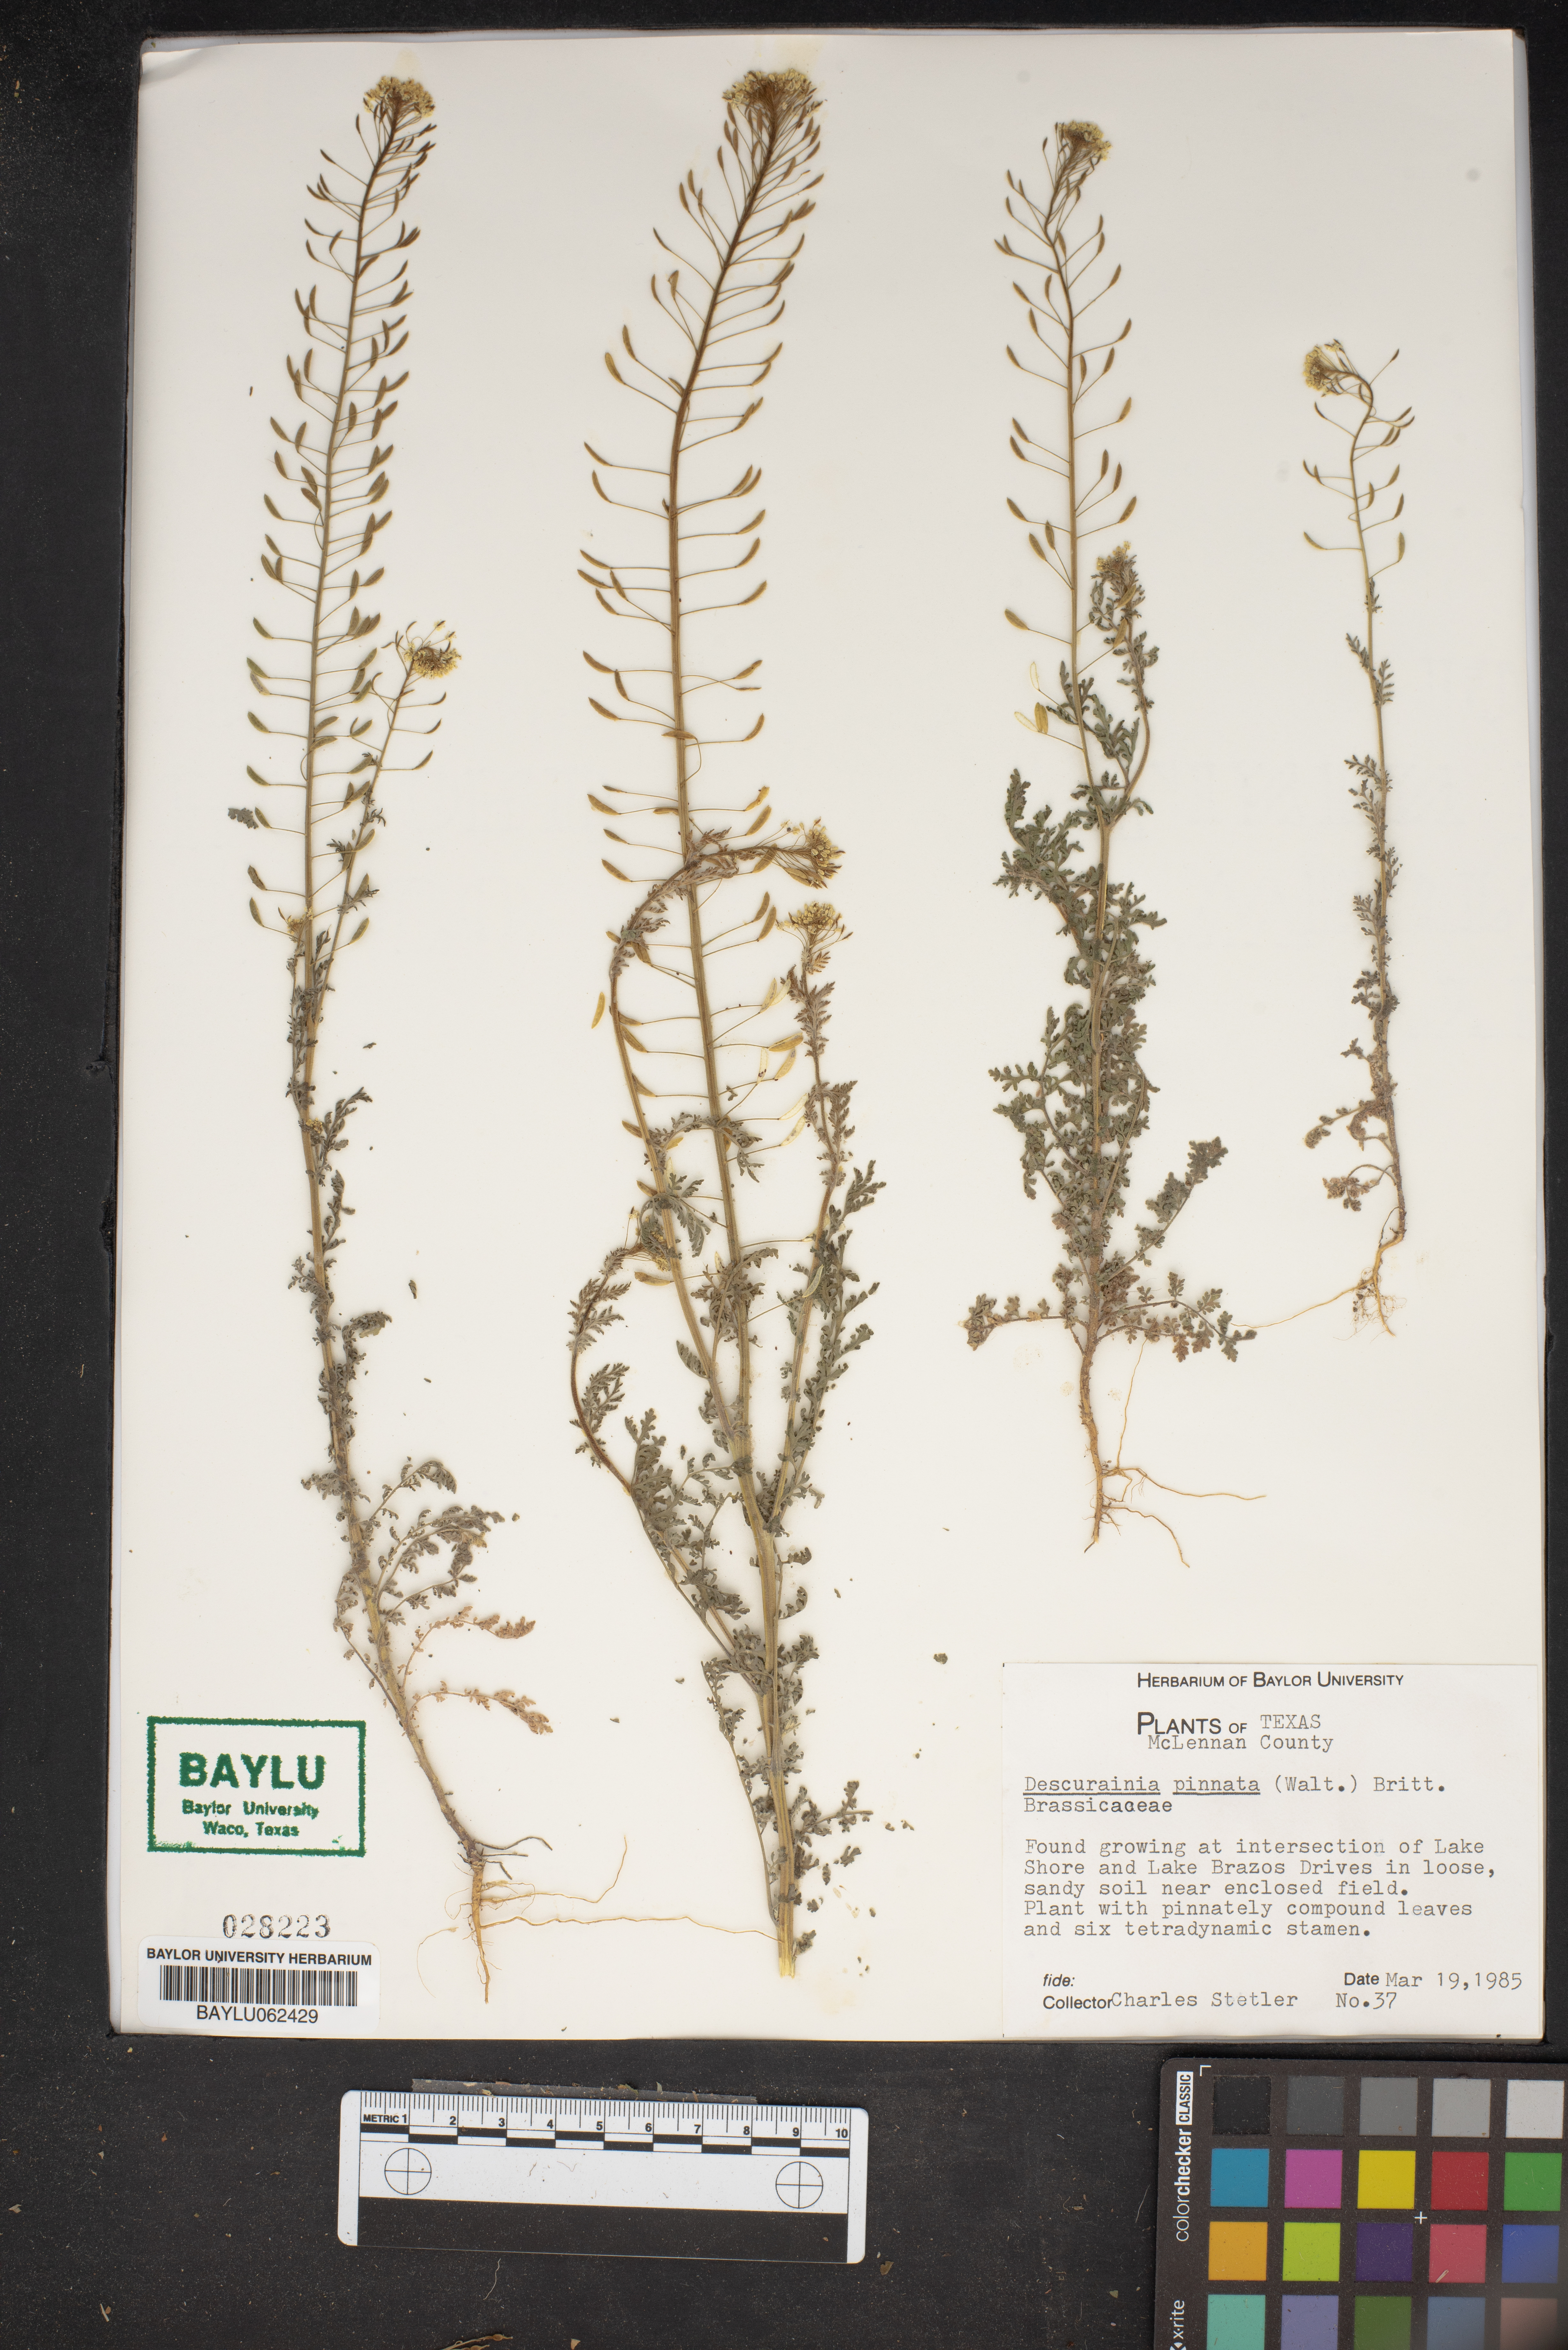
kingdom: Plantae
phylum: Tracheophyta
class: Magnoliopsida
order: Brassicales
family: Brassicaceae
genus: Descurainia
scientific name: Descurainia pinnata
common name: Western tansy mustard
